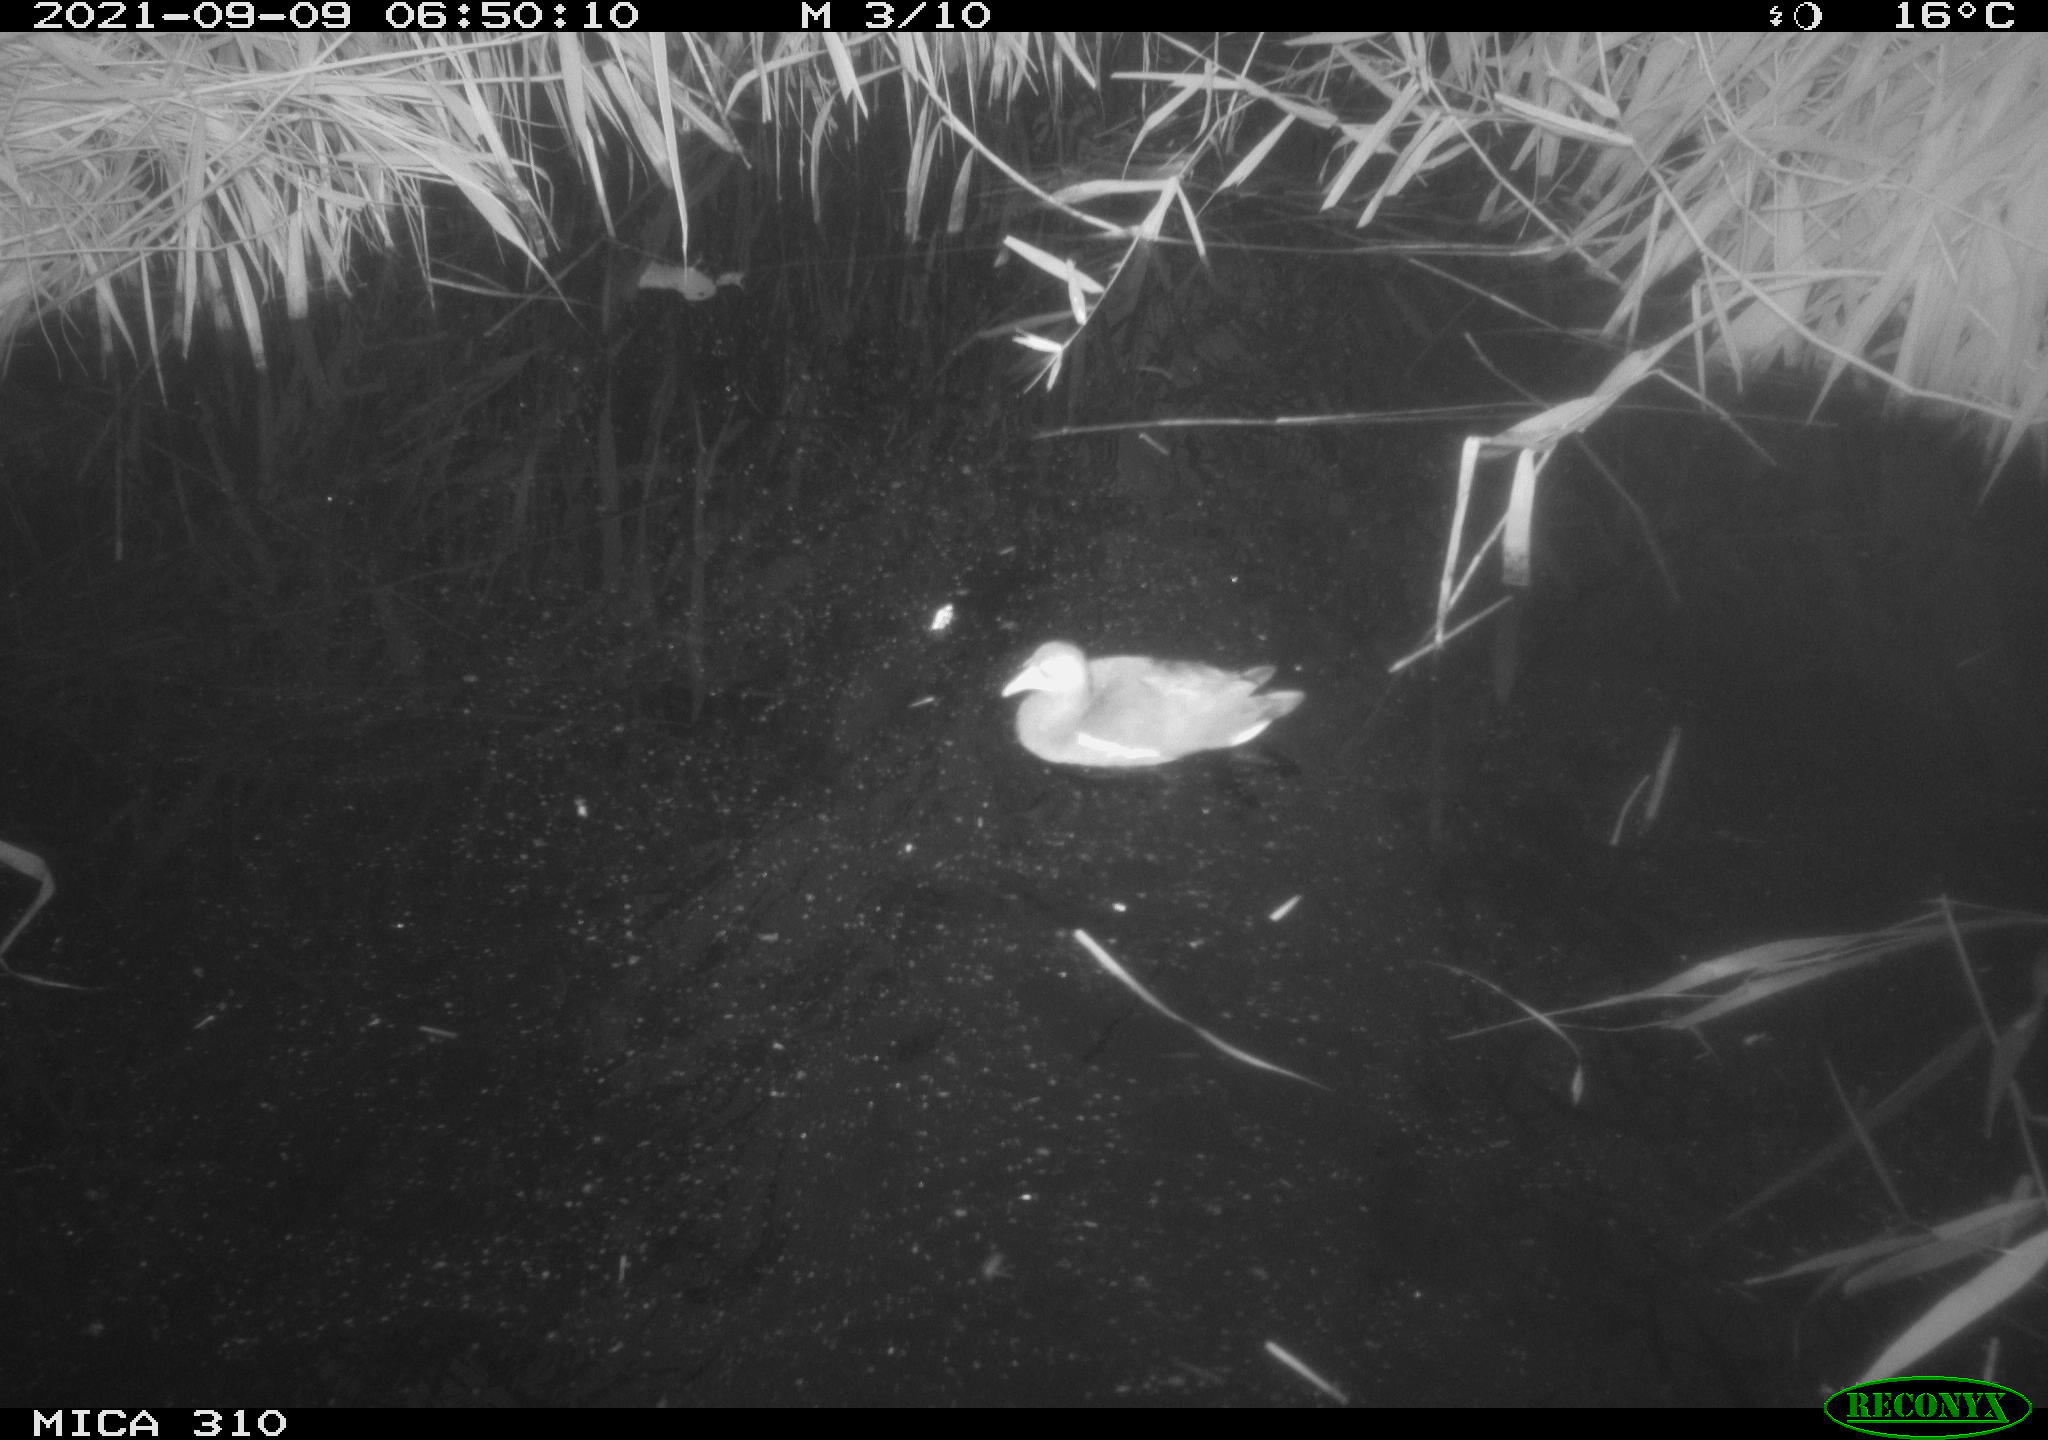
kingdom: Animalia
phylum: Chordata
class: Aves
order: Gruiformes
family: Rallidae
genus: Gallinula
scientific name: Gallinula chloropus
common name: Common moorhen
